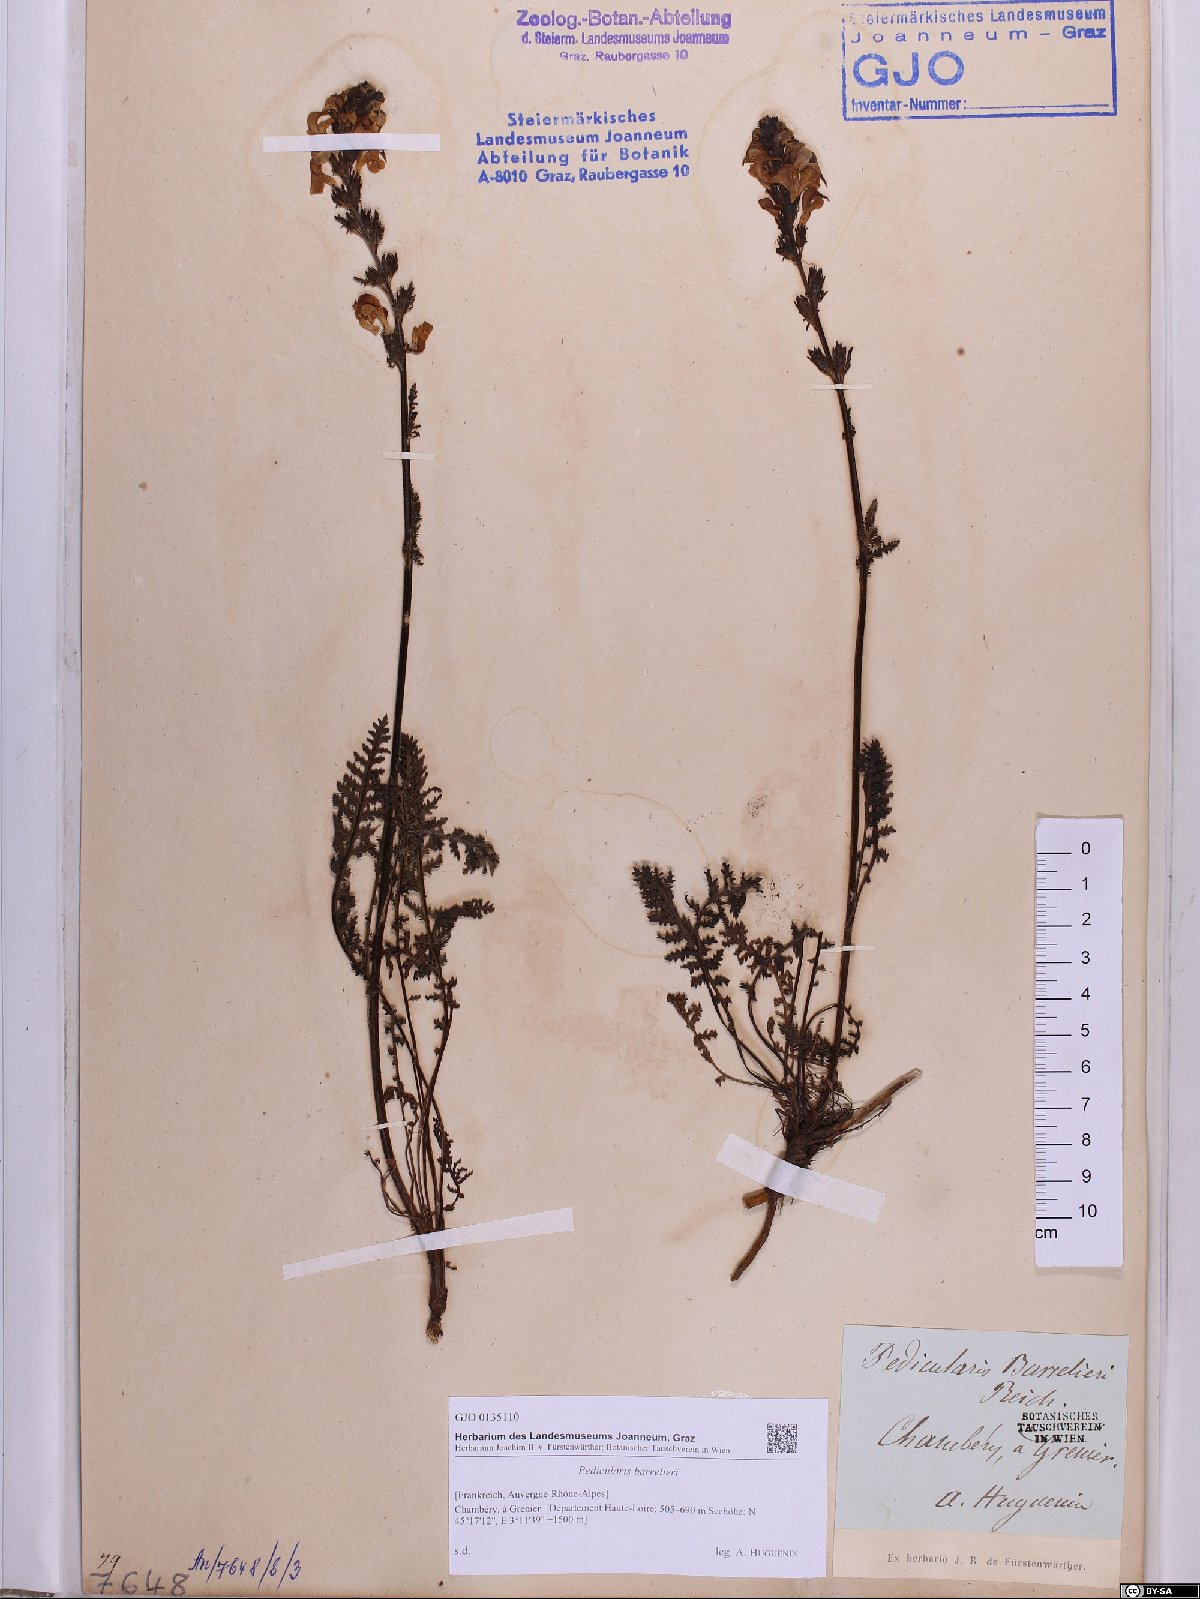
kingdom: Plantae
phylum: Tracheophyta
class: Magnoliopsida
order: Lamiales
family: Orobanchaceae
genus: Pedicularis
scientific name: Pedicularis ascendens
